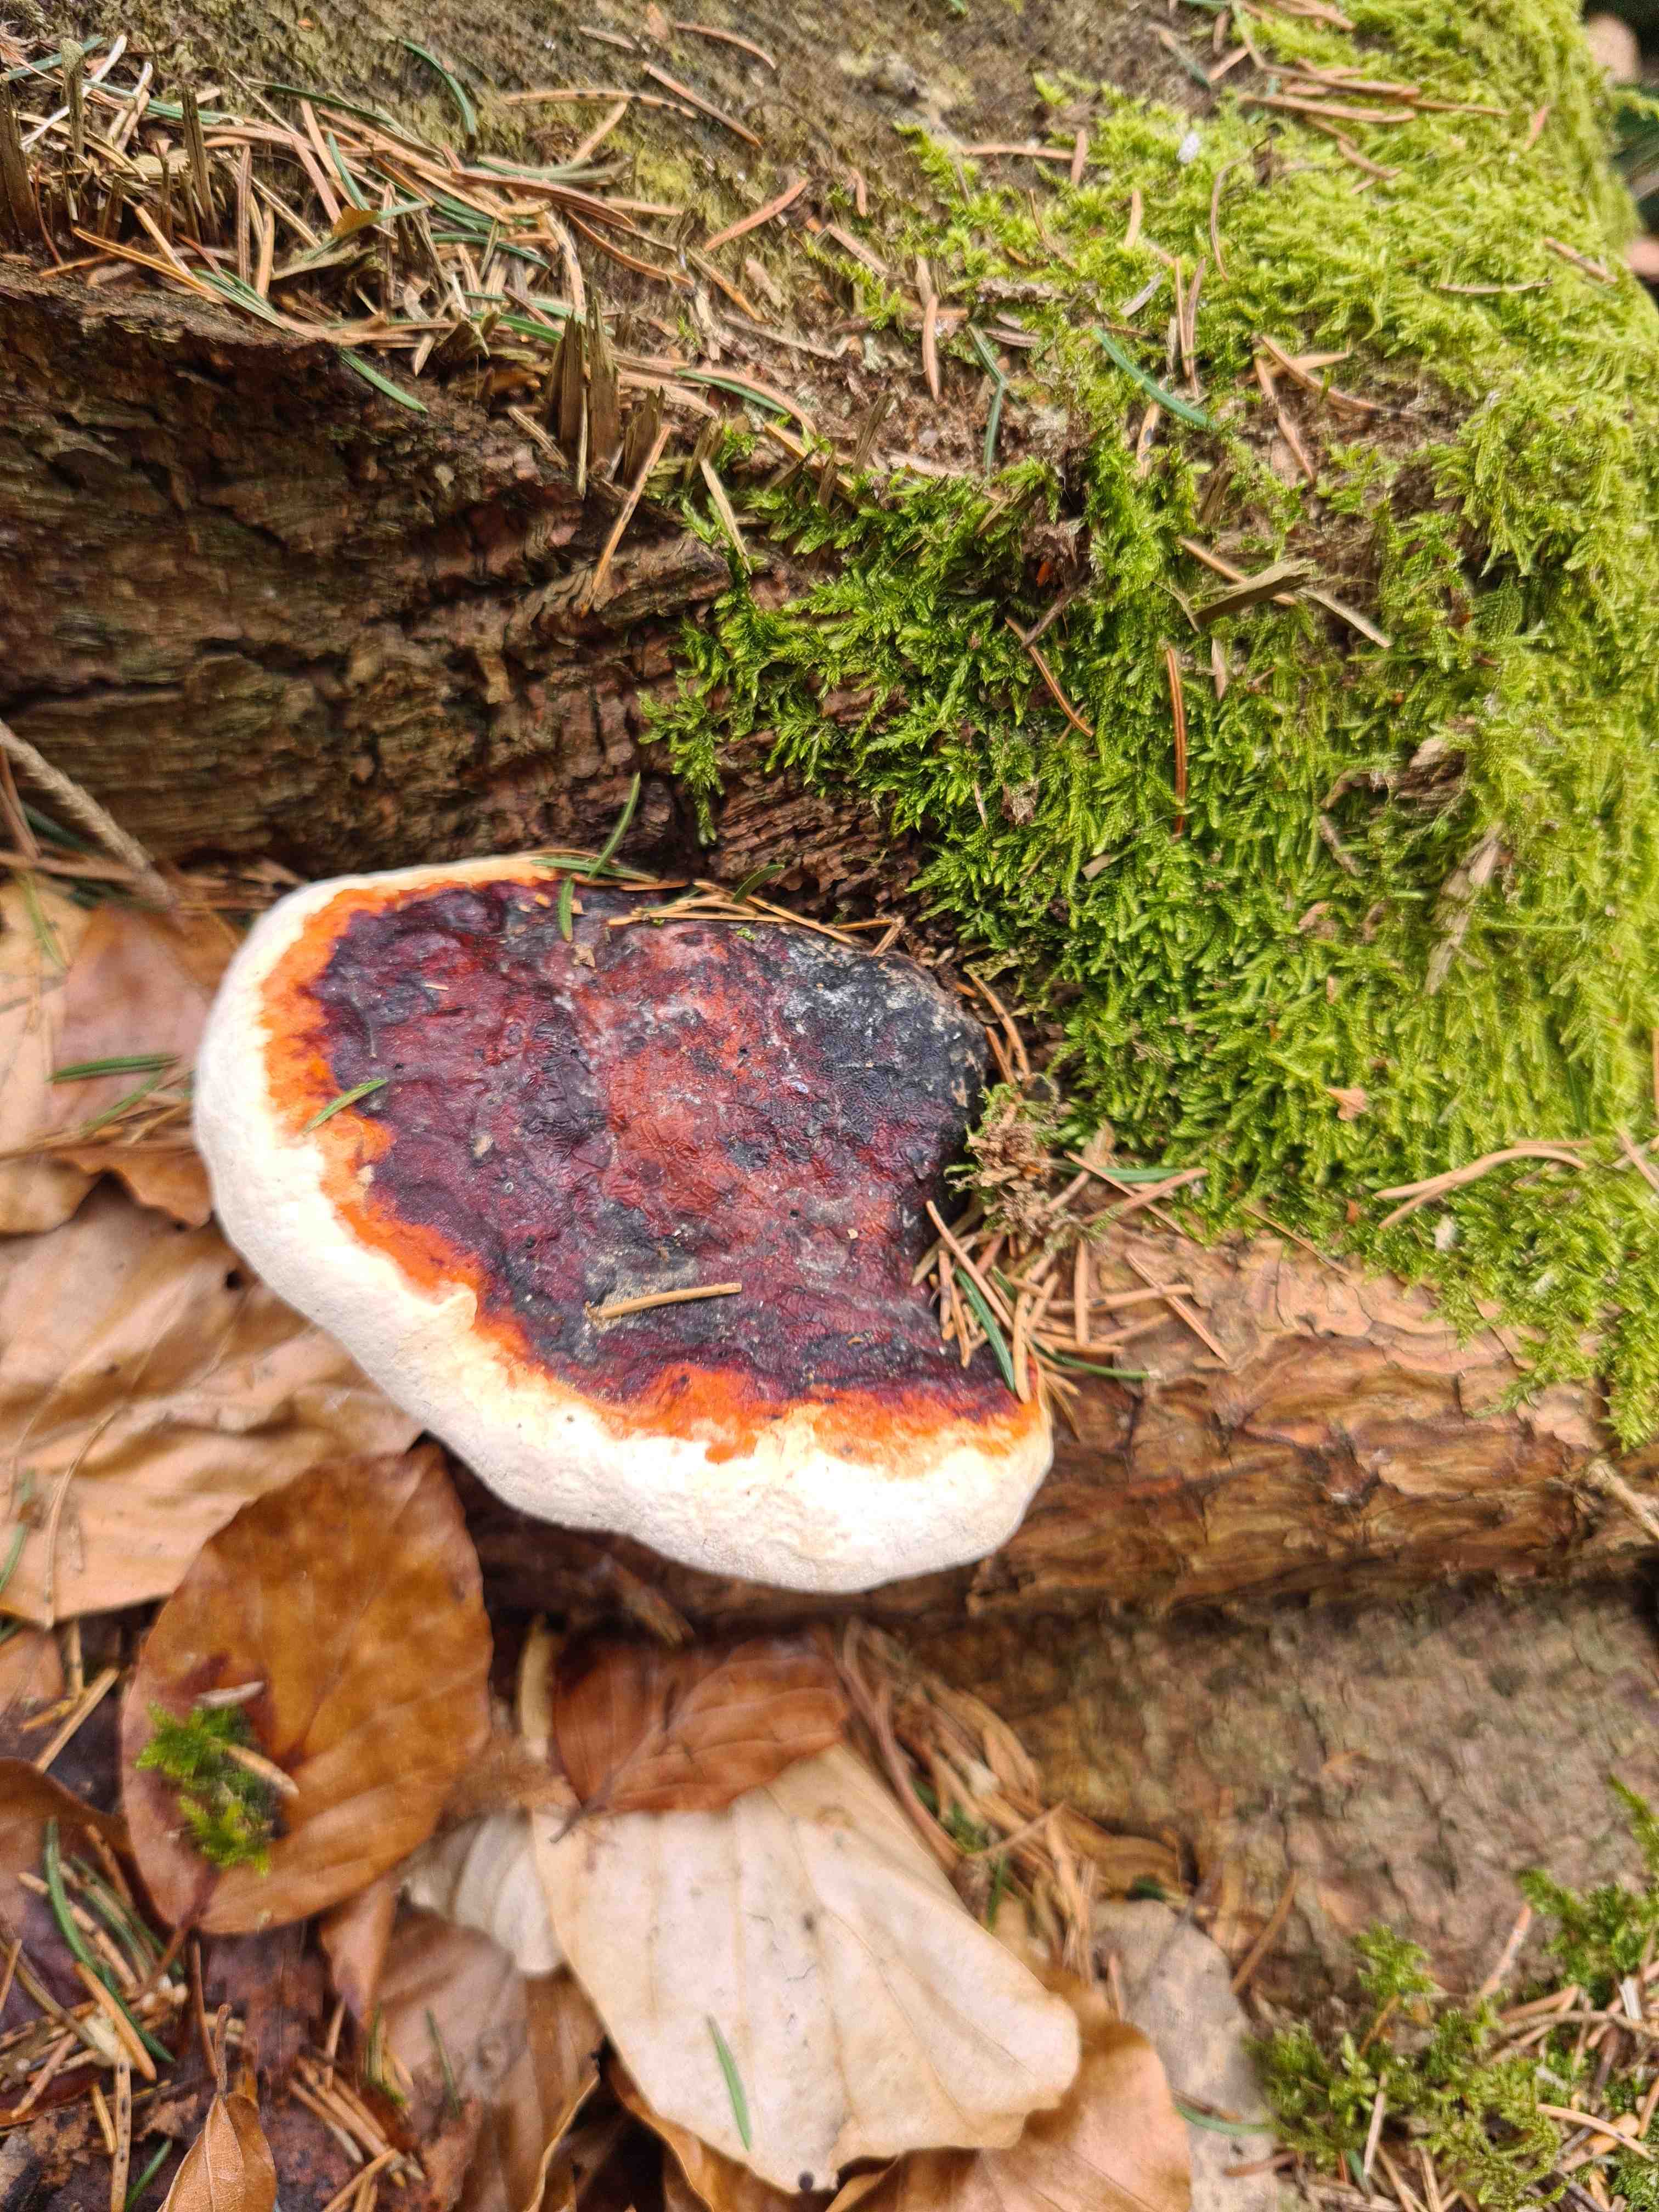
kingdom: Fungi
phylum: Basidiomycota
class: Agaricomycetes
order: Polyporales
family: Fomitopsidaceae
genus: Fomitopsis
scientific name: Fomitopsis pinicola
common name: randbæltet hovporesvamp
